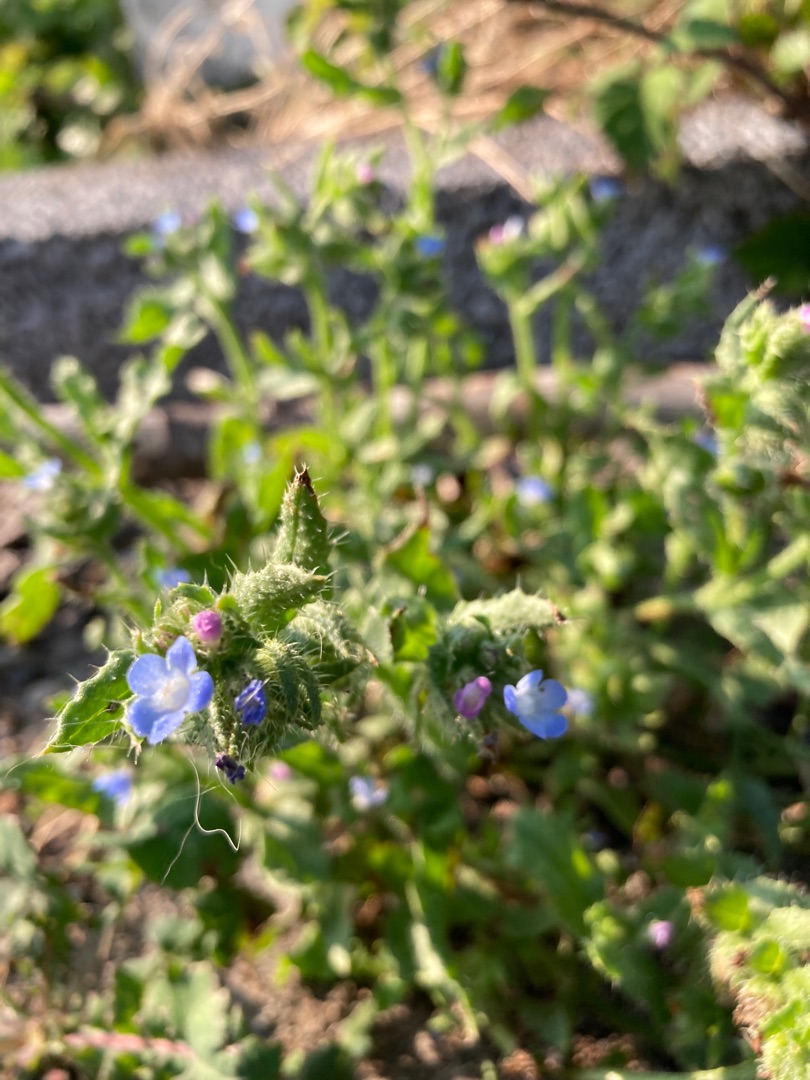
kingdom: Plantae
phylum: Tracheophyta
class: Magnoliopsida
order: Boraginales
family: Boraginaceae
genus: Lycopsis
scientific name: Lycopsis arvensis
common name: Krumhals
